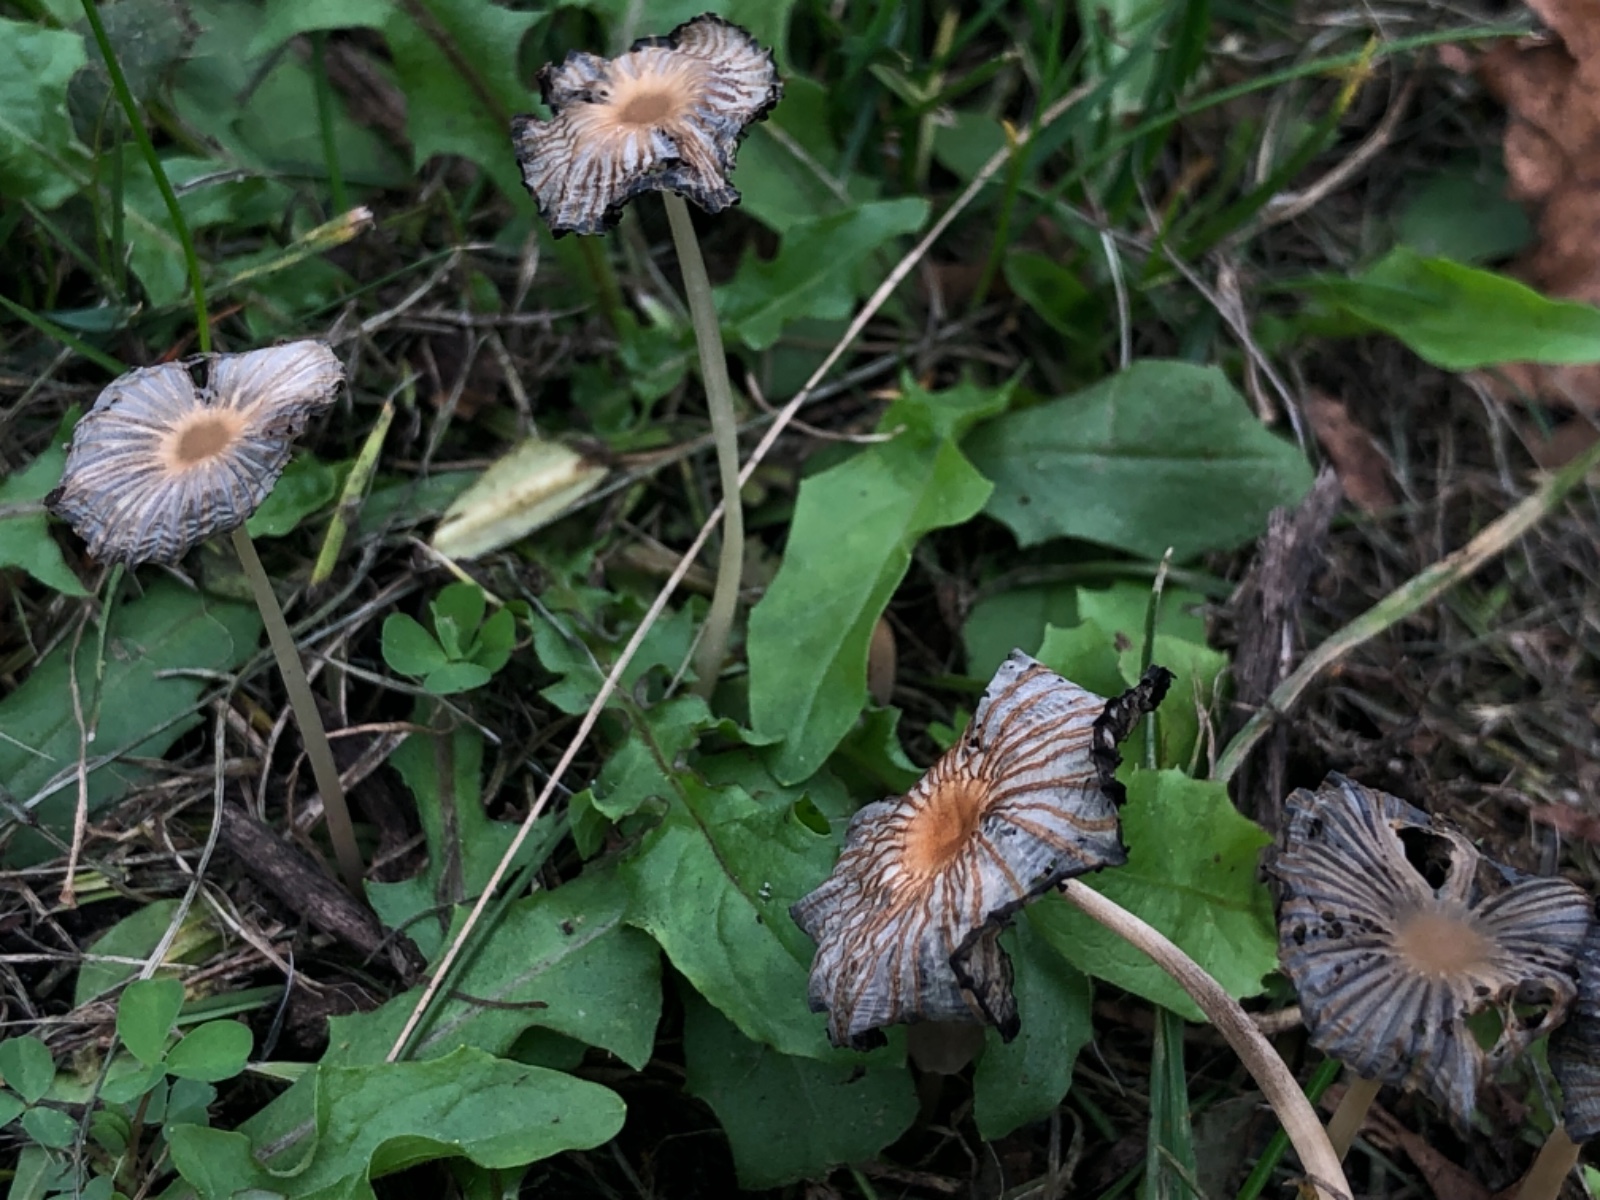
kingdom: Fungi
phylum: Basidiomycota
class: Agaricomycetes
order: Agaricales
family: Psathyrellaceae
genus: Parasola
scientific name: Parasola
